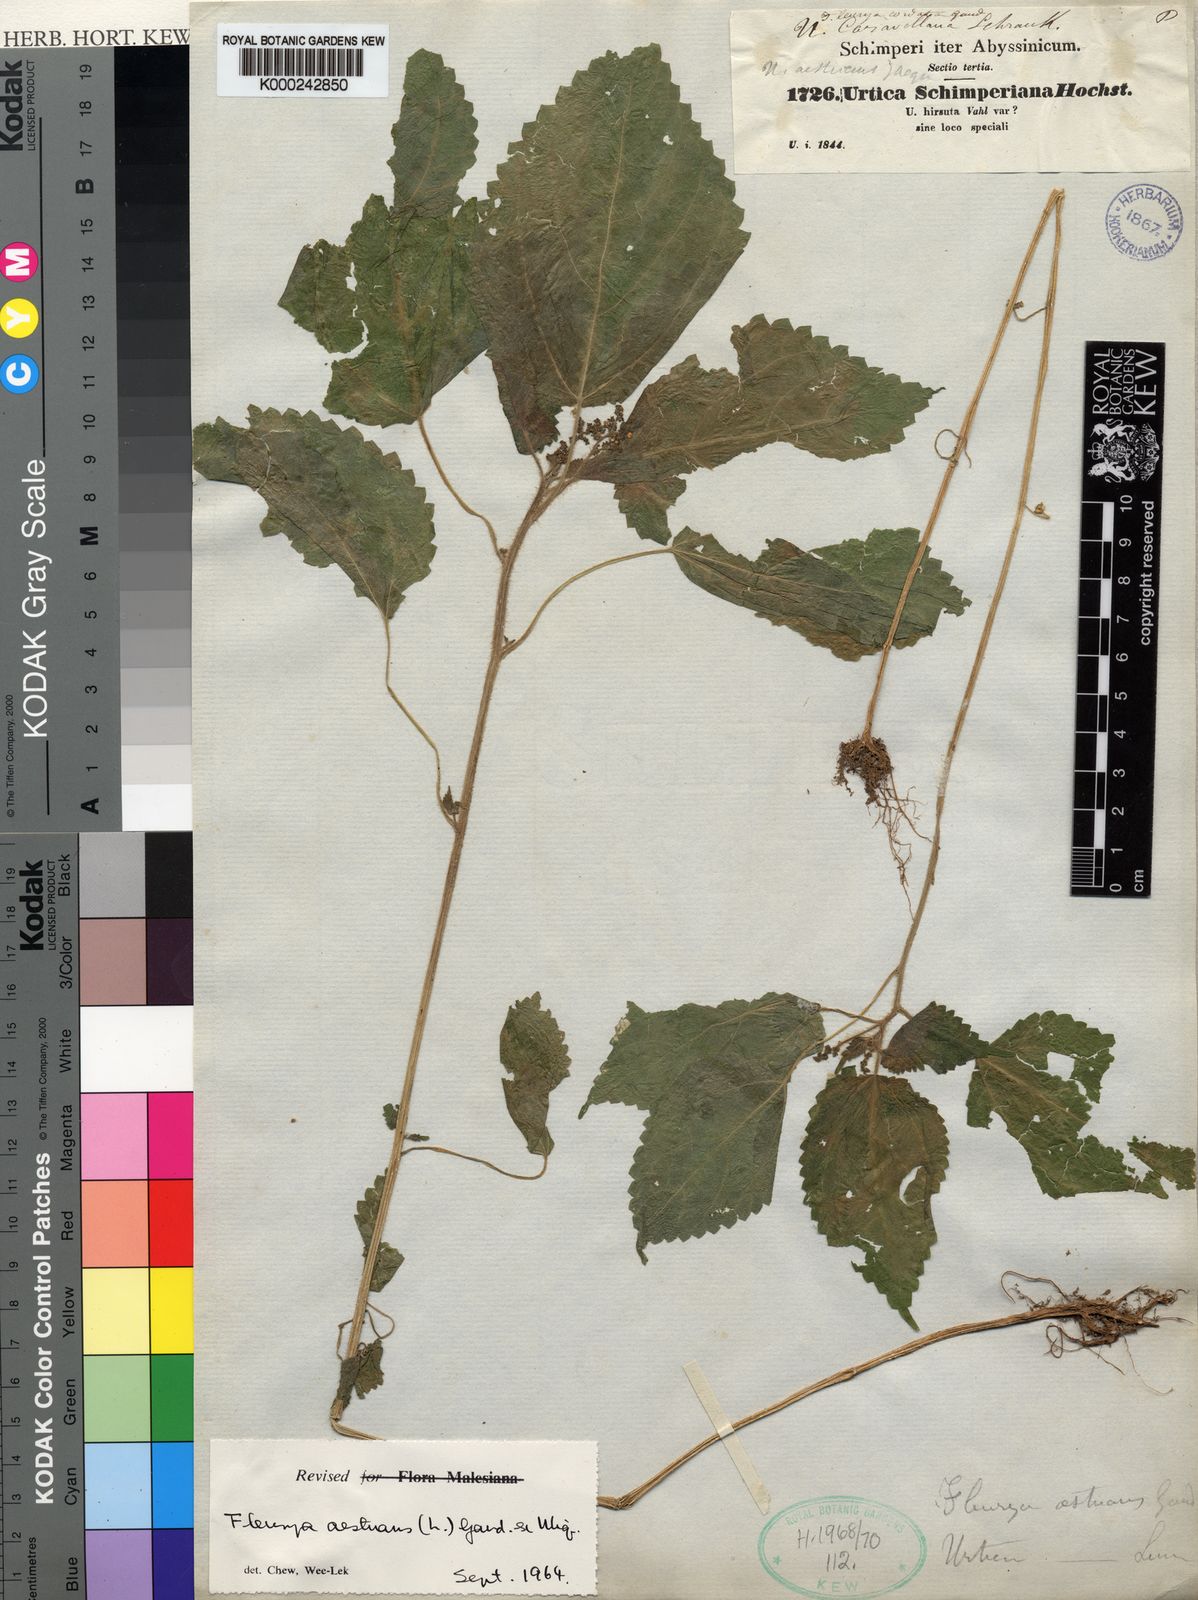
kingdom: Plantae
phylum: Tracheophyta
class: Magnoliopsida
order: Rosales
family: Urticaceae
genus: Laportea
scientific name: Laportea aestuans
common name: West indian woodnettle
